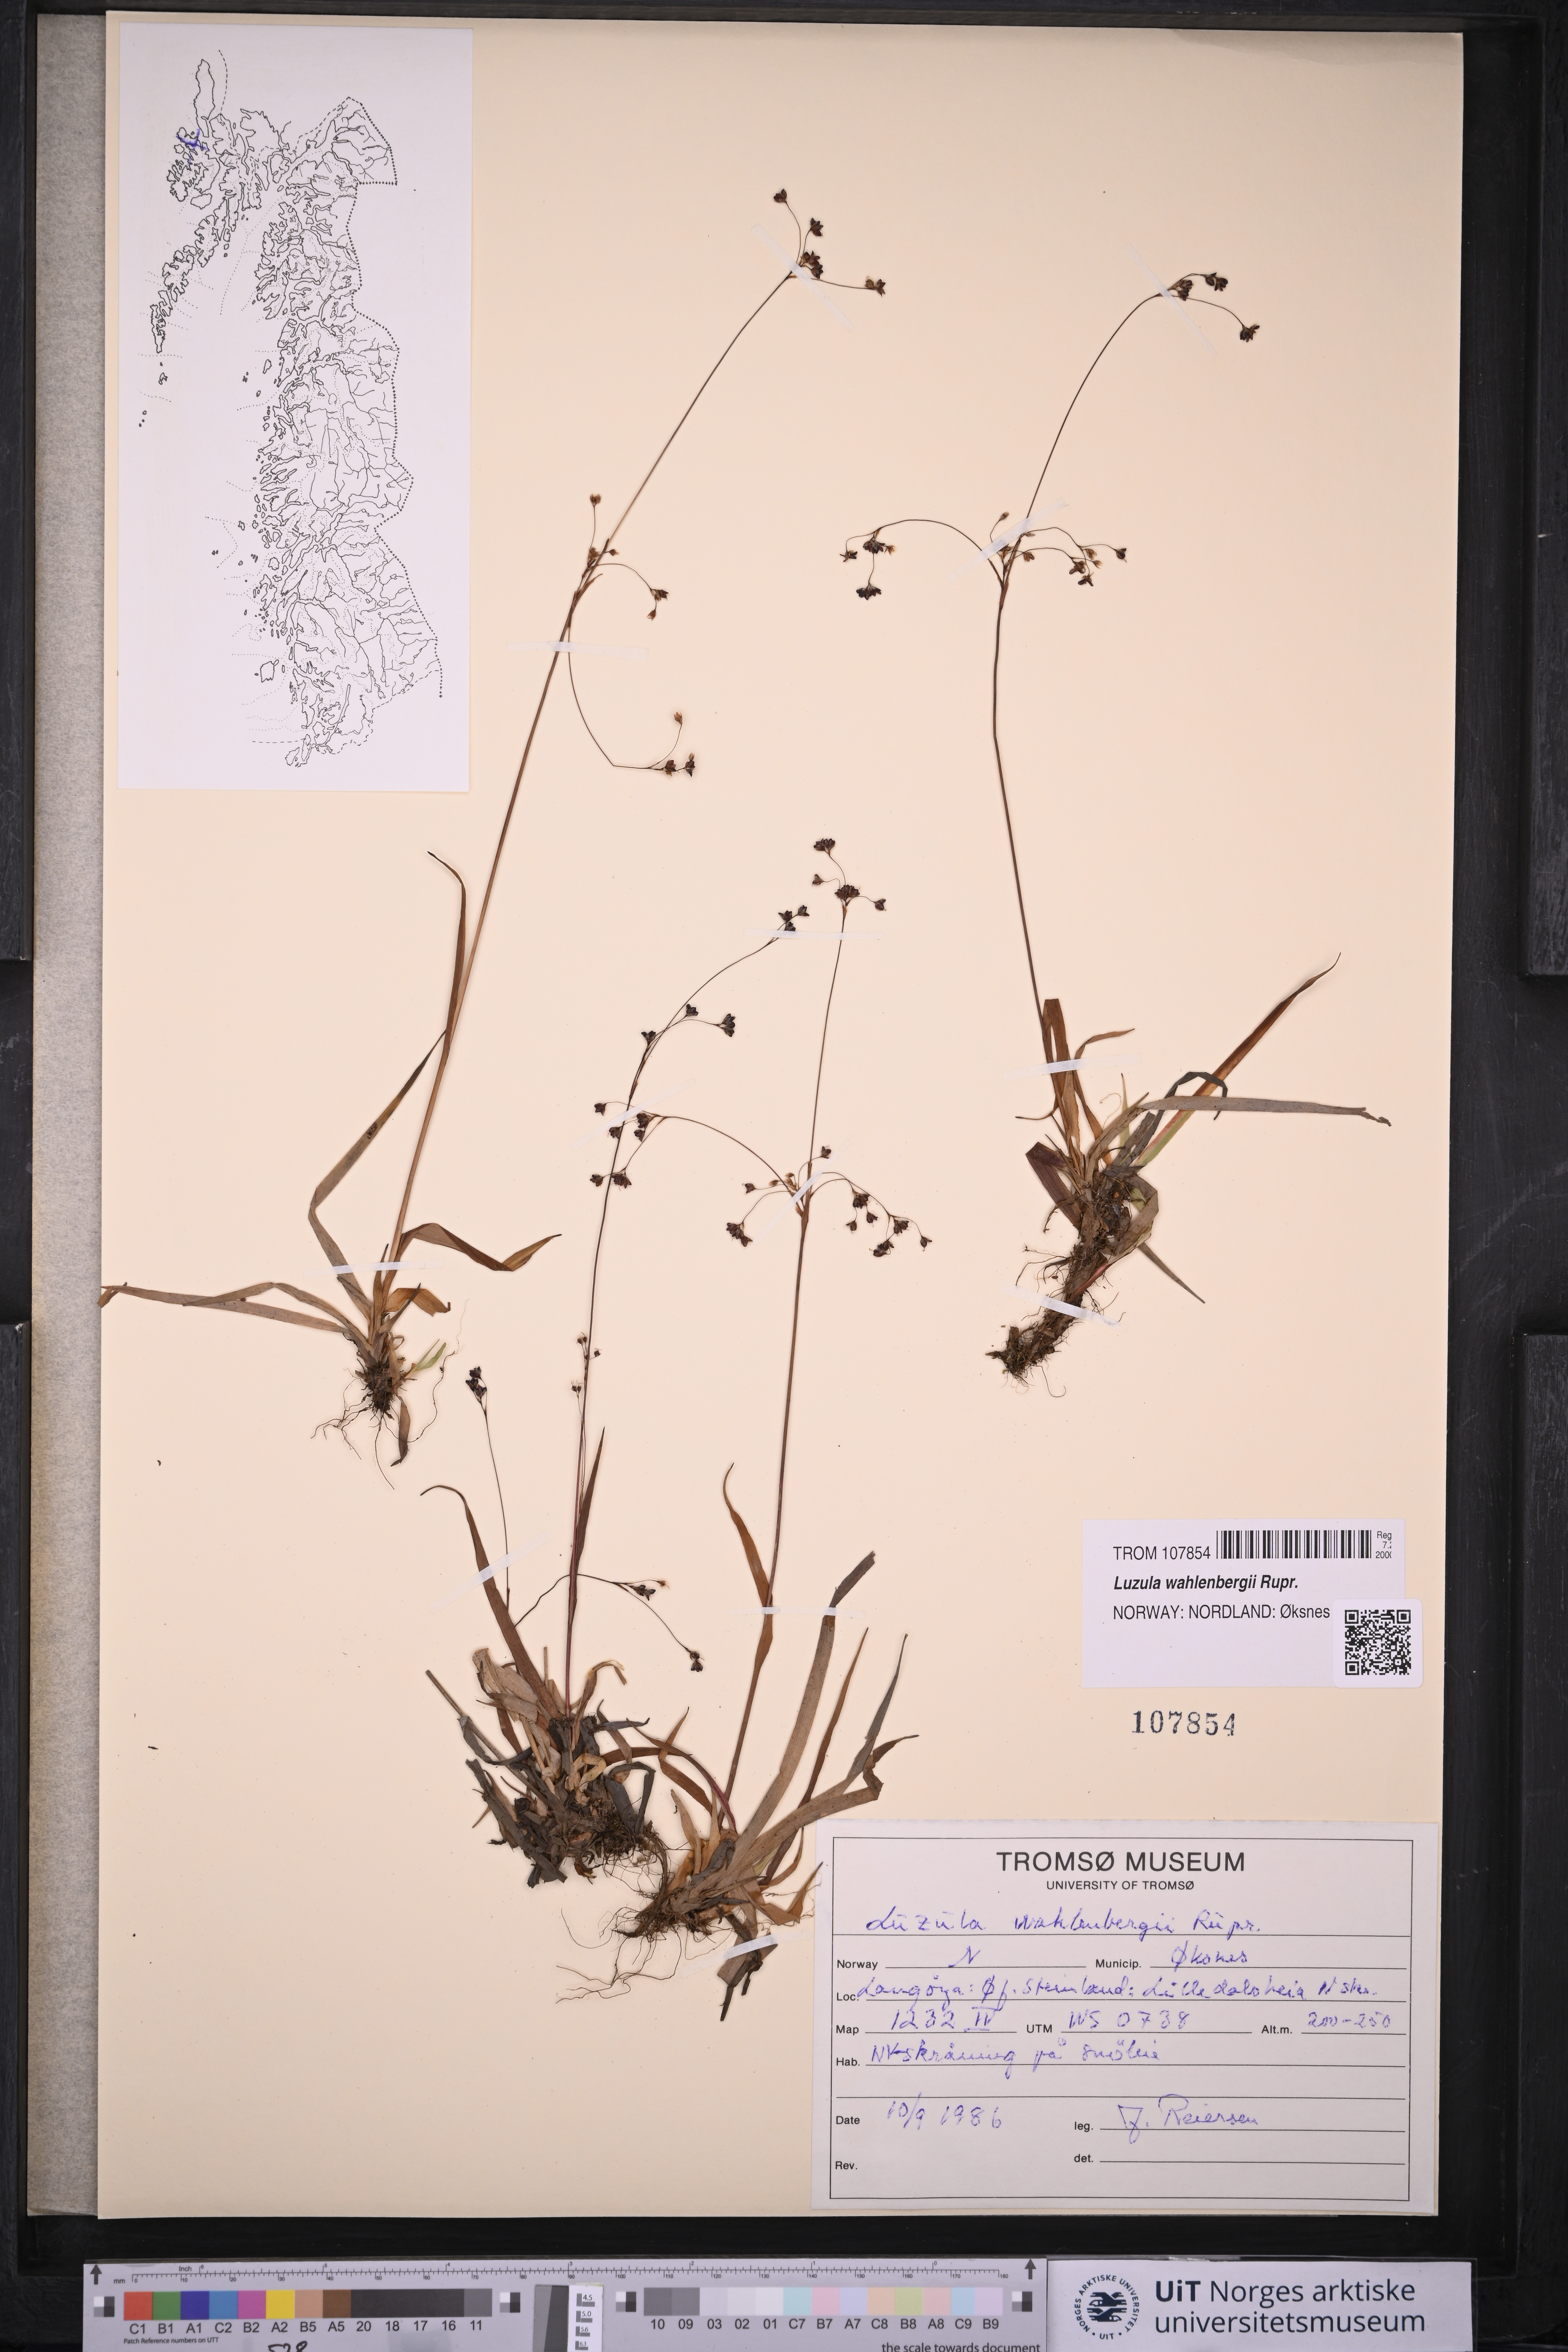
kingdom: Plantae
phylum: Tracheophyta
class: Liliopsida
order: Poales
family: Juncaceae
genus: Luzula
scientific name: Luzula wahlenbergii
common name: Wahlenberg's wood-rush
